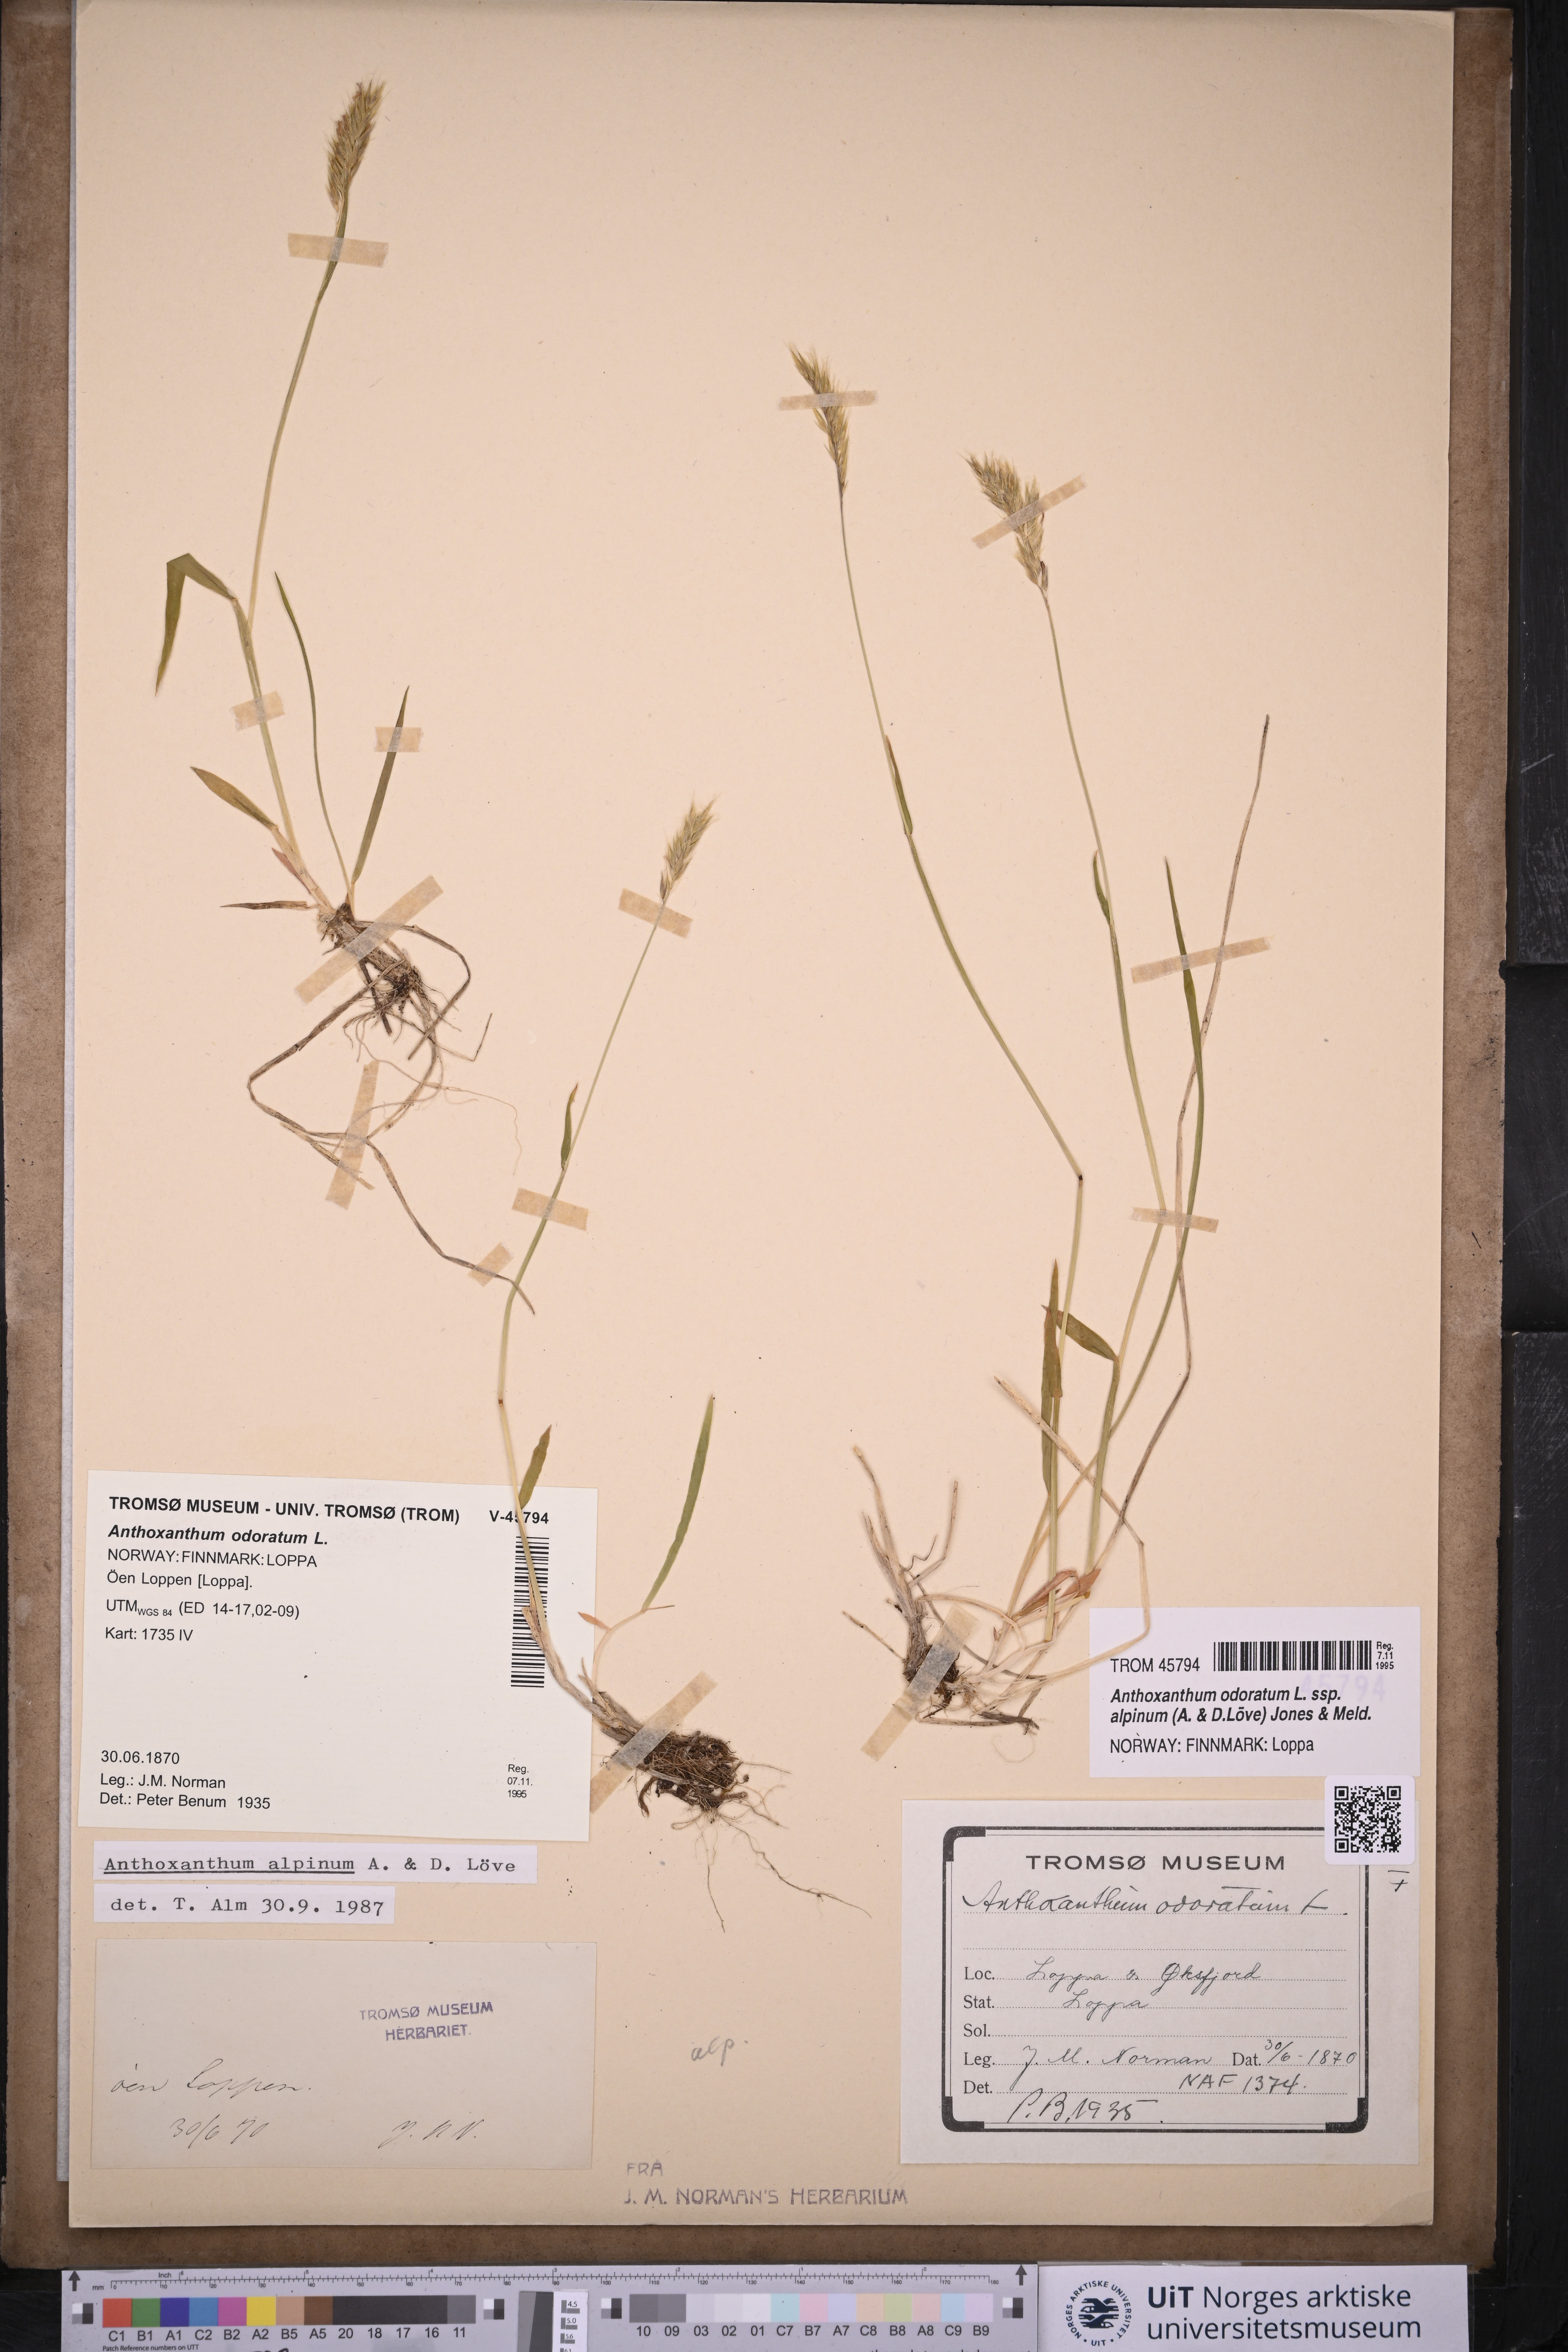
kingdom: Plantae
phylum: Tracheophyta
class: Liliopsida
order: Poales
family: Poaceae
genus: Anthoxanthum
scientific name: Anthoxanthum nipponicum
